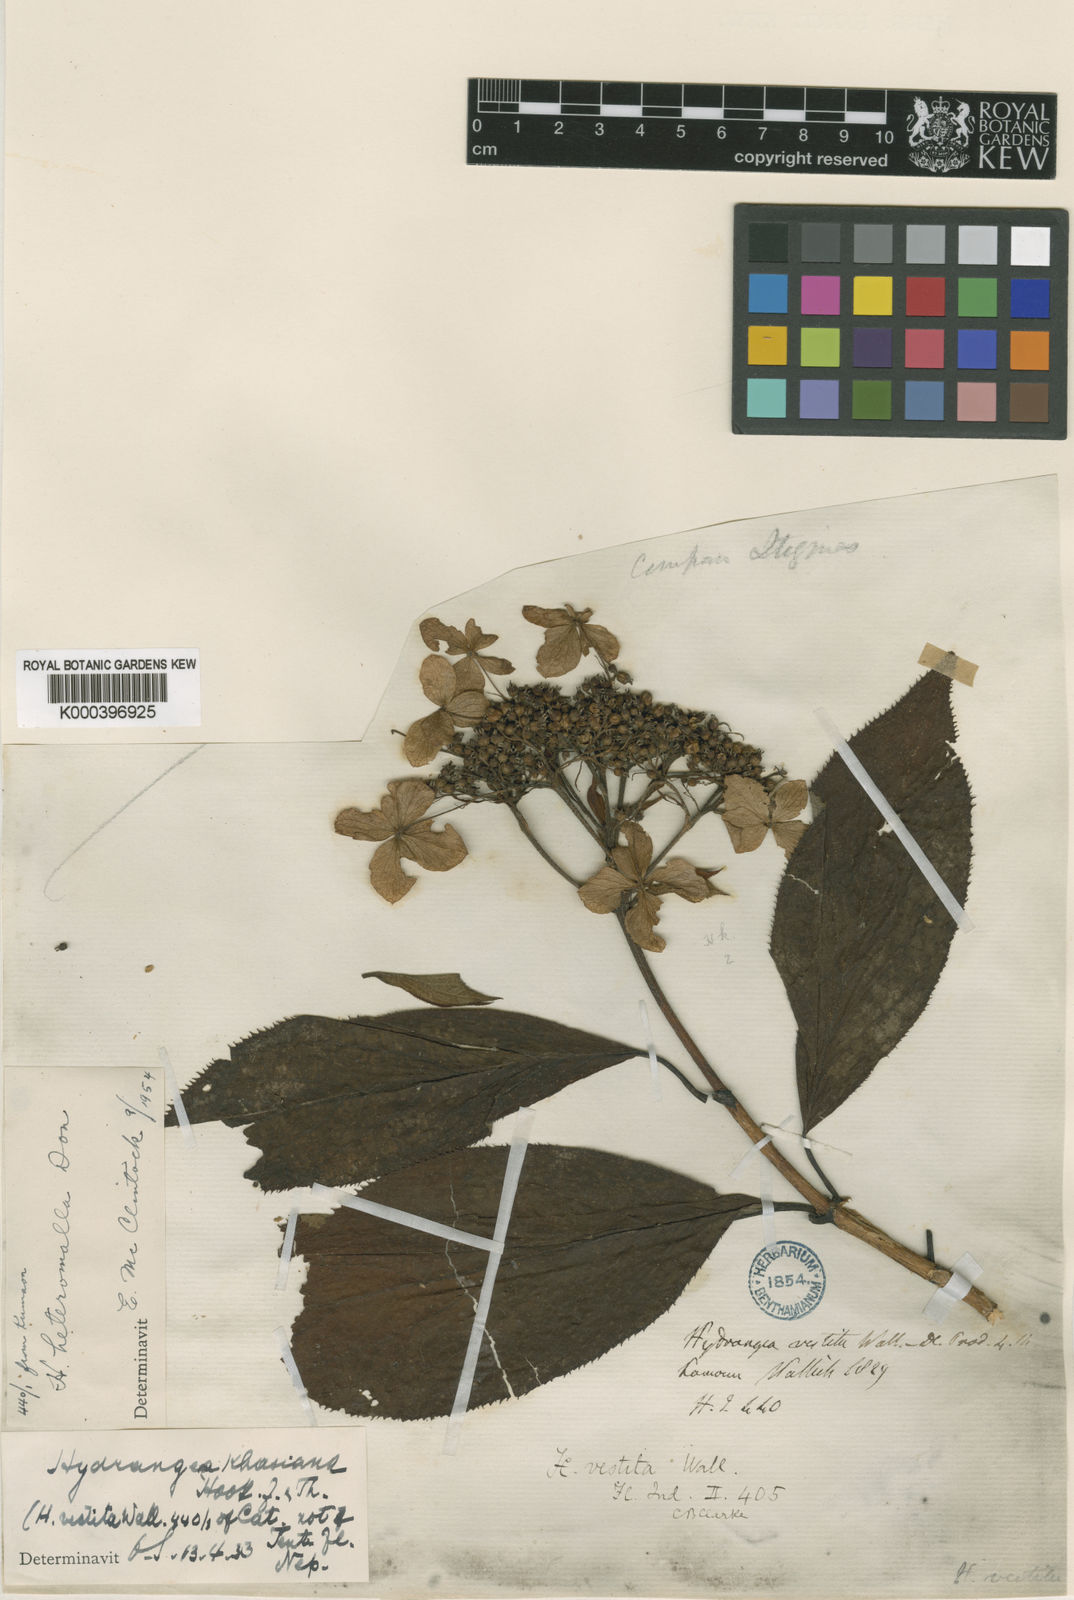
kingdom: Plantae
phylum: Tracheophyta
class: Magnoliopsida
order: Cornales
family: Hydrangeaceae
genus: Hydrangea
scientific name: Hydrangea heteromalla
